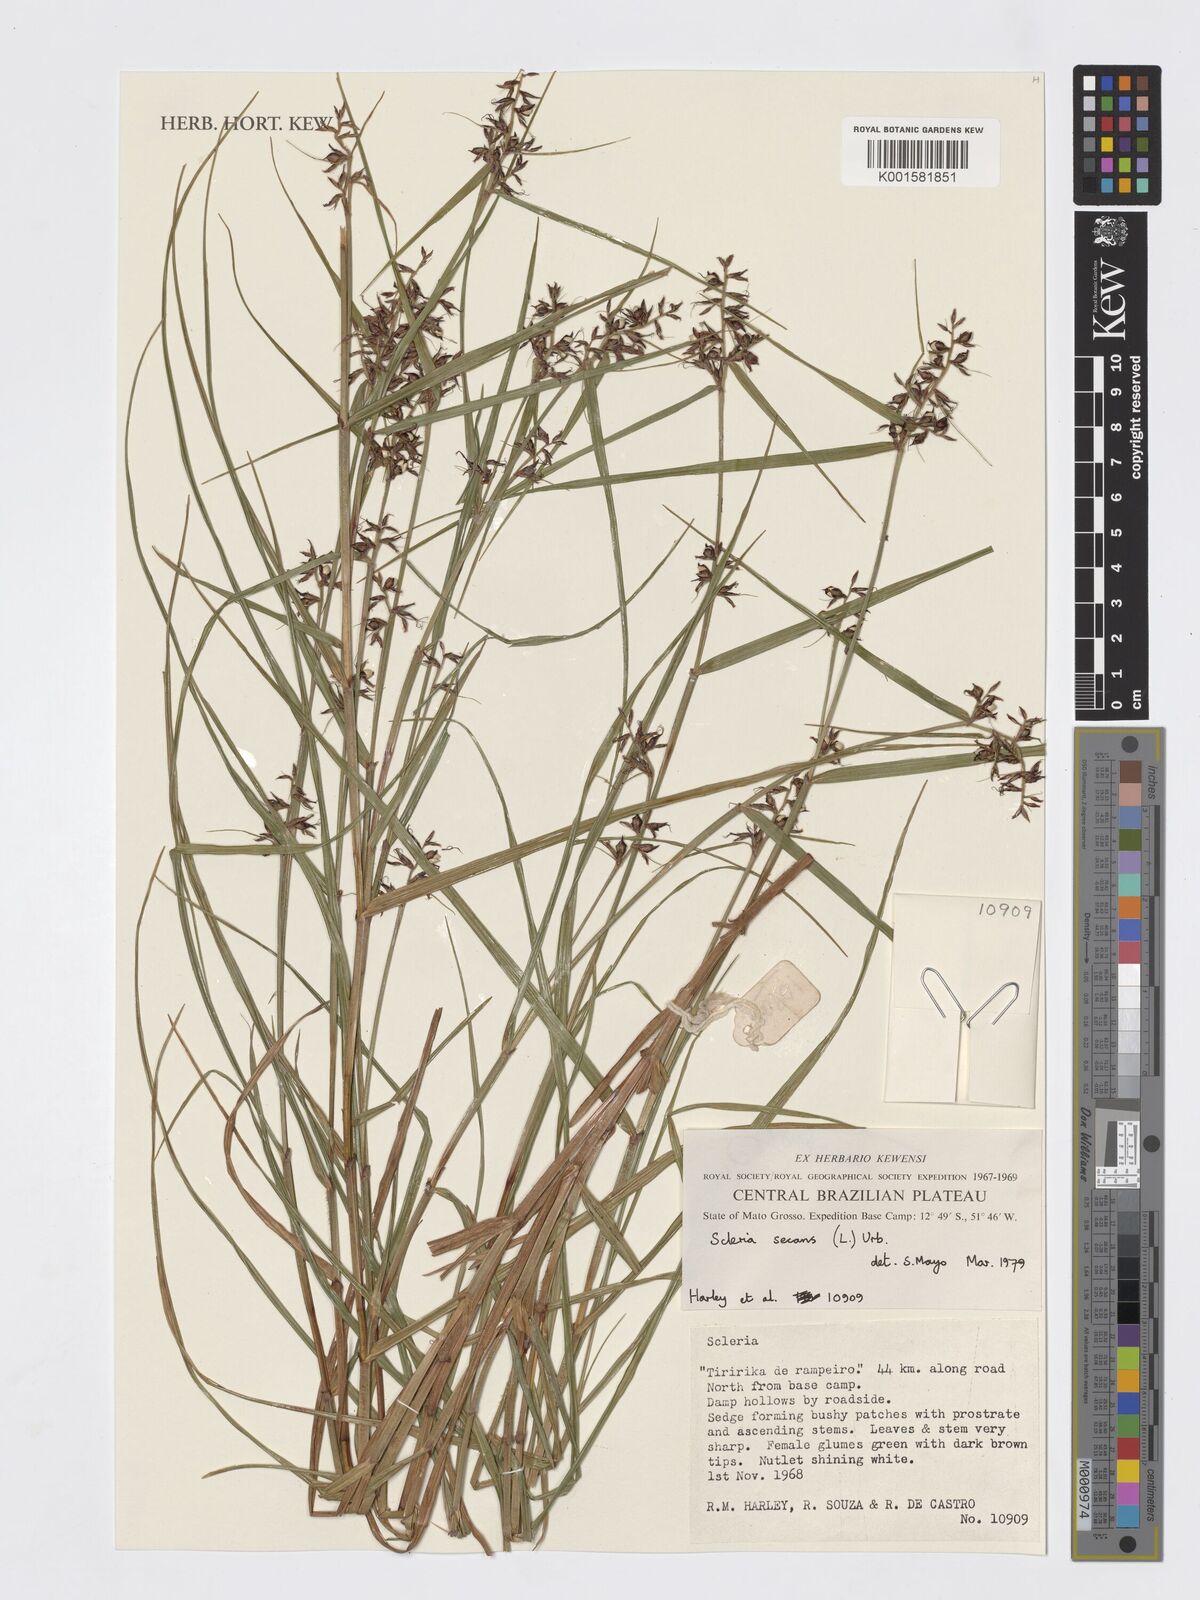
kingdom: Plantae
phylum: Tracheophyta
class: Liliopsida
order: Poales
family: Cyperaceae
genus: Scleria
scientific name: Scleria secans
